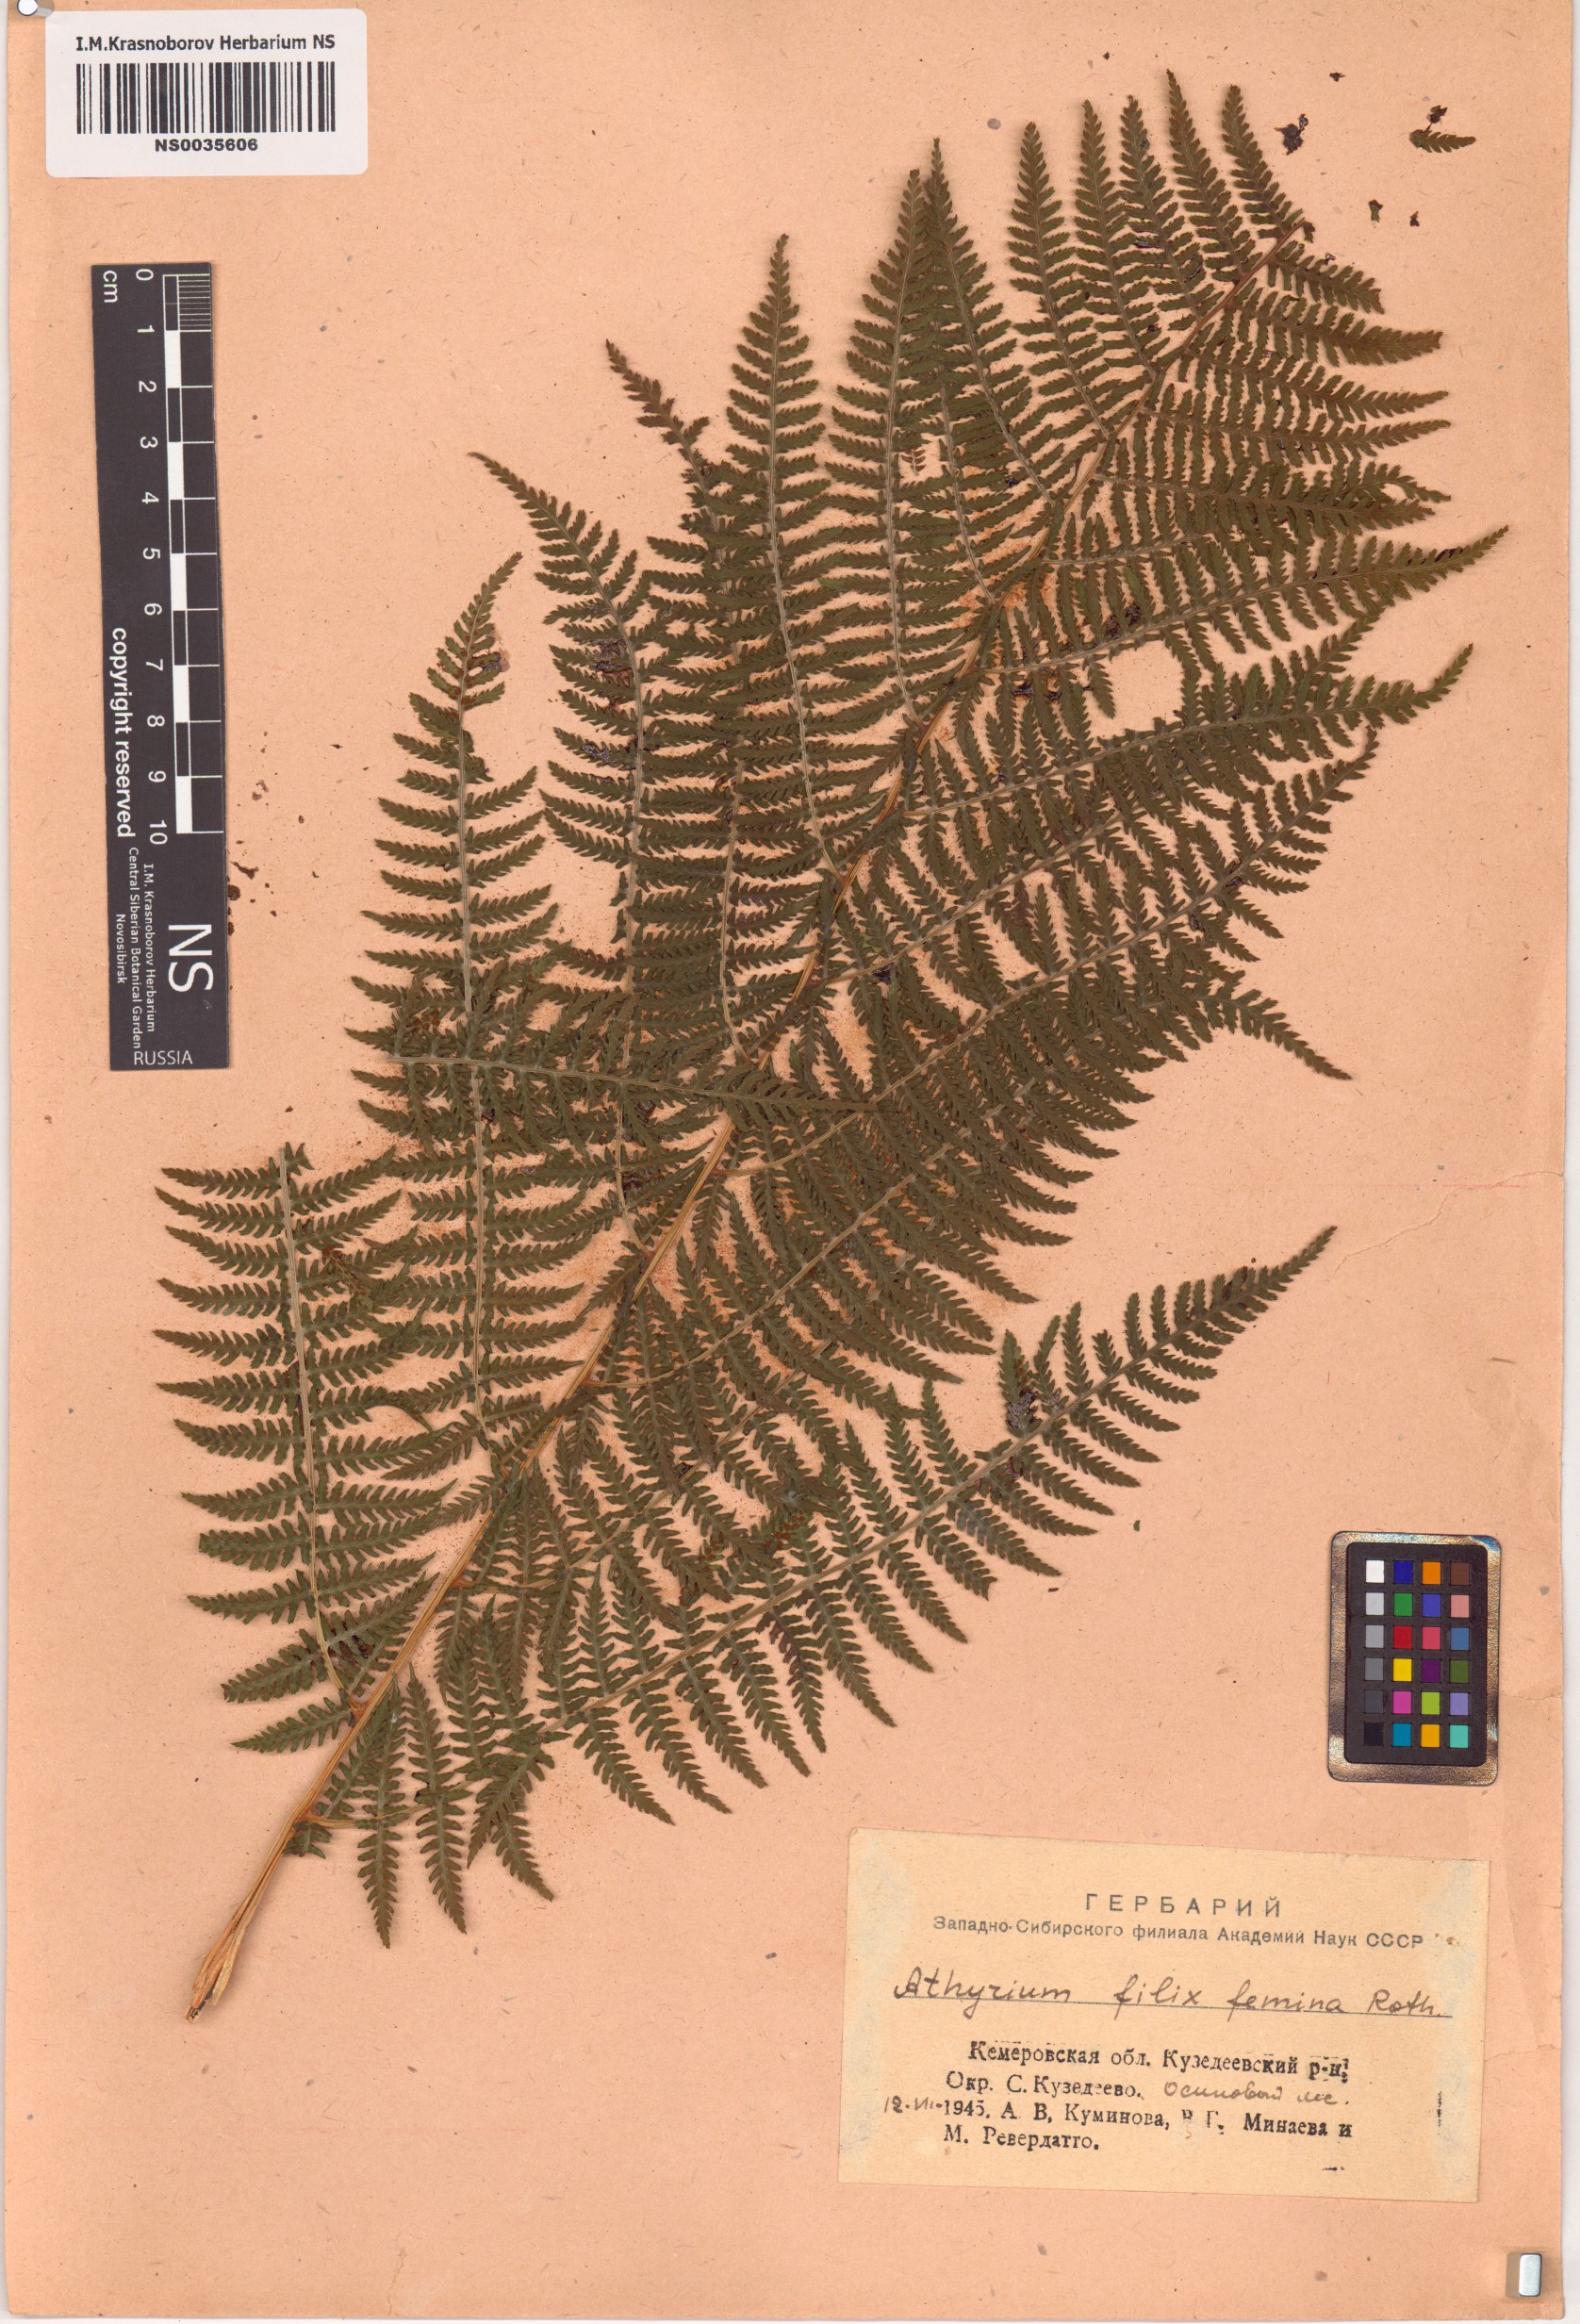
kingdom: Plantae
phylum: Tracheophyta
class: Polypodiopsida
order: Polypodiales
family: Athyriaceae
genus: Athyrium
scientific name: Athyrium filix-femina
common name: Lady fern
